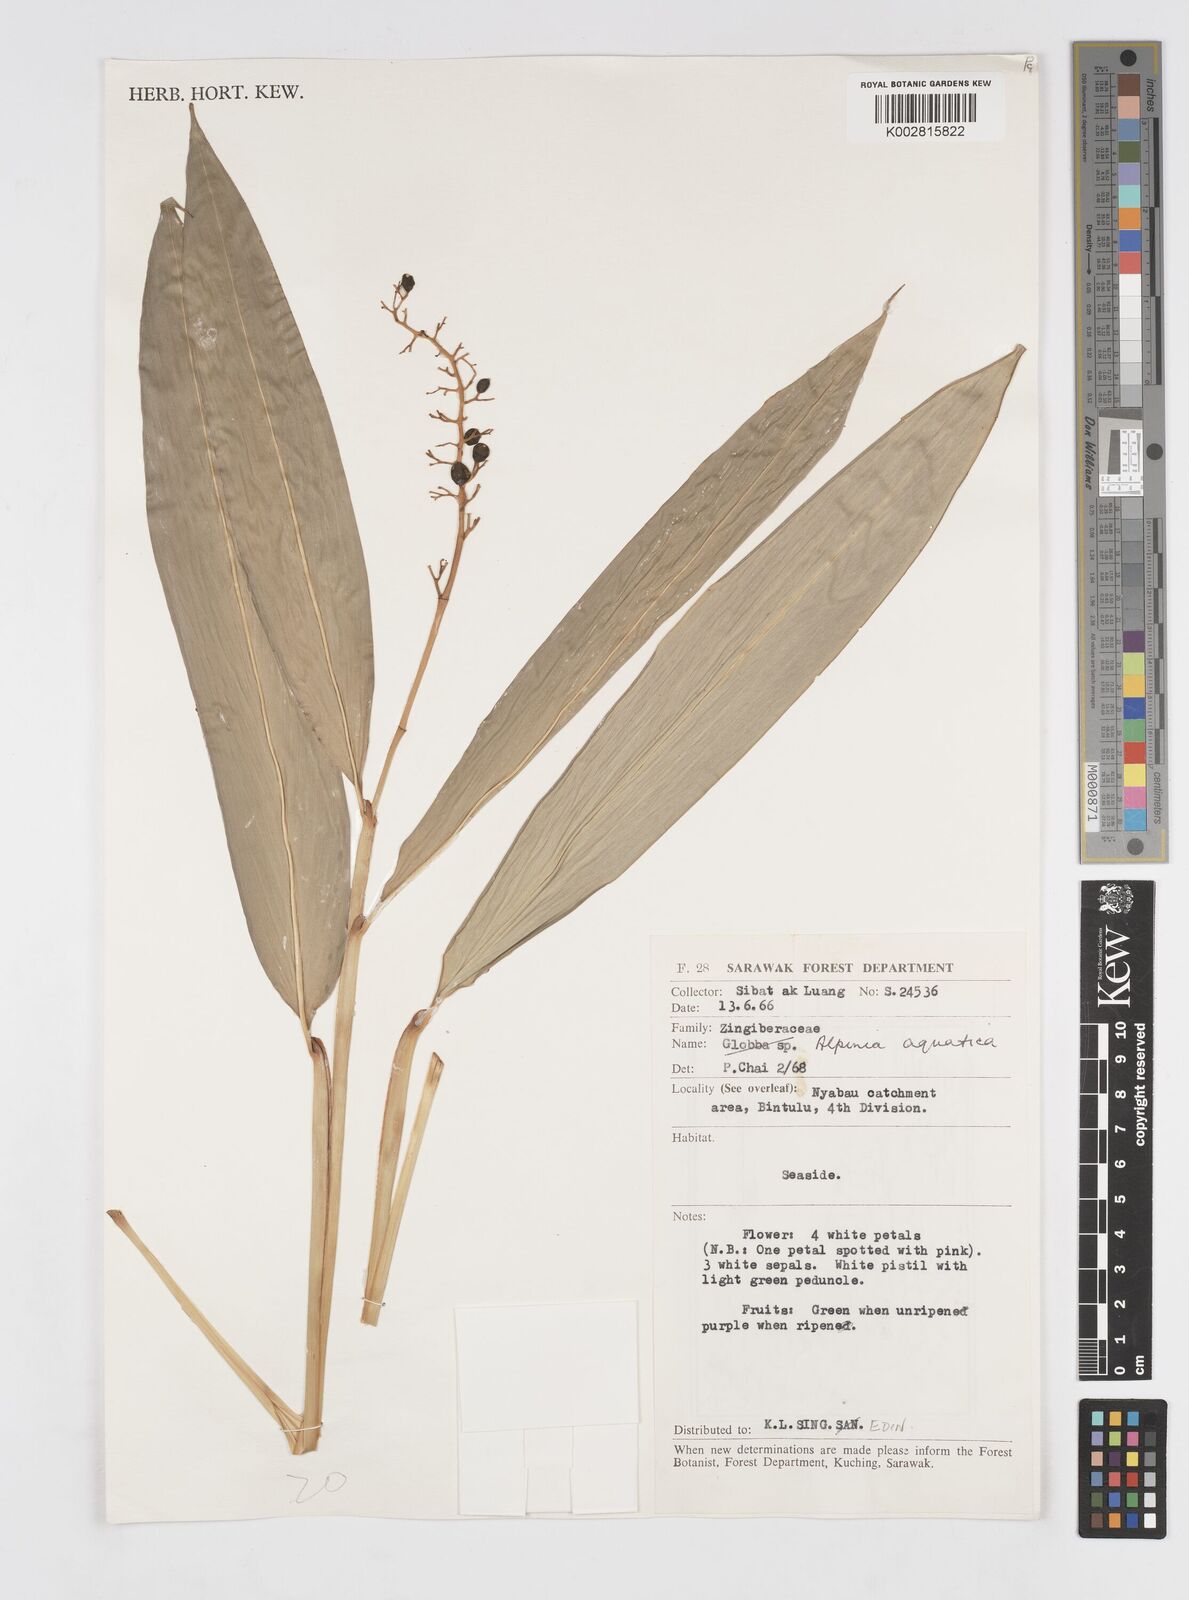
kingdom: Plantae
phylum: Tracheophyta
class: Liliopsida
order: Zingiberales
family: Zingiberaceae
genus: Alpinia
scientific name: Alpinia aquatica
